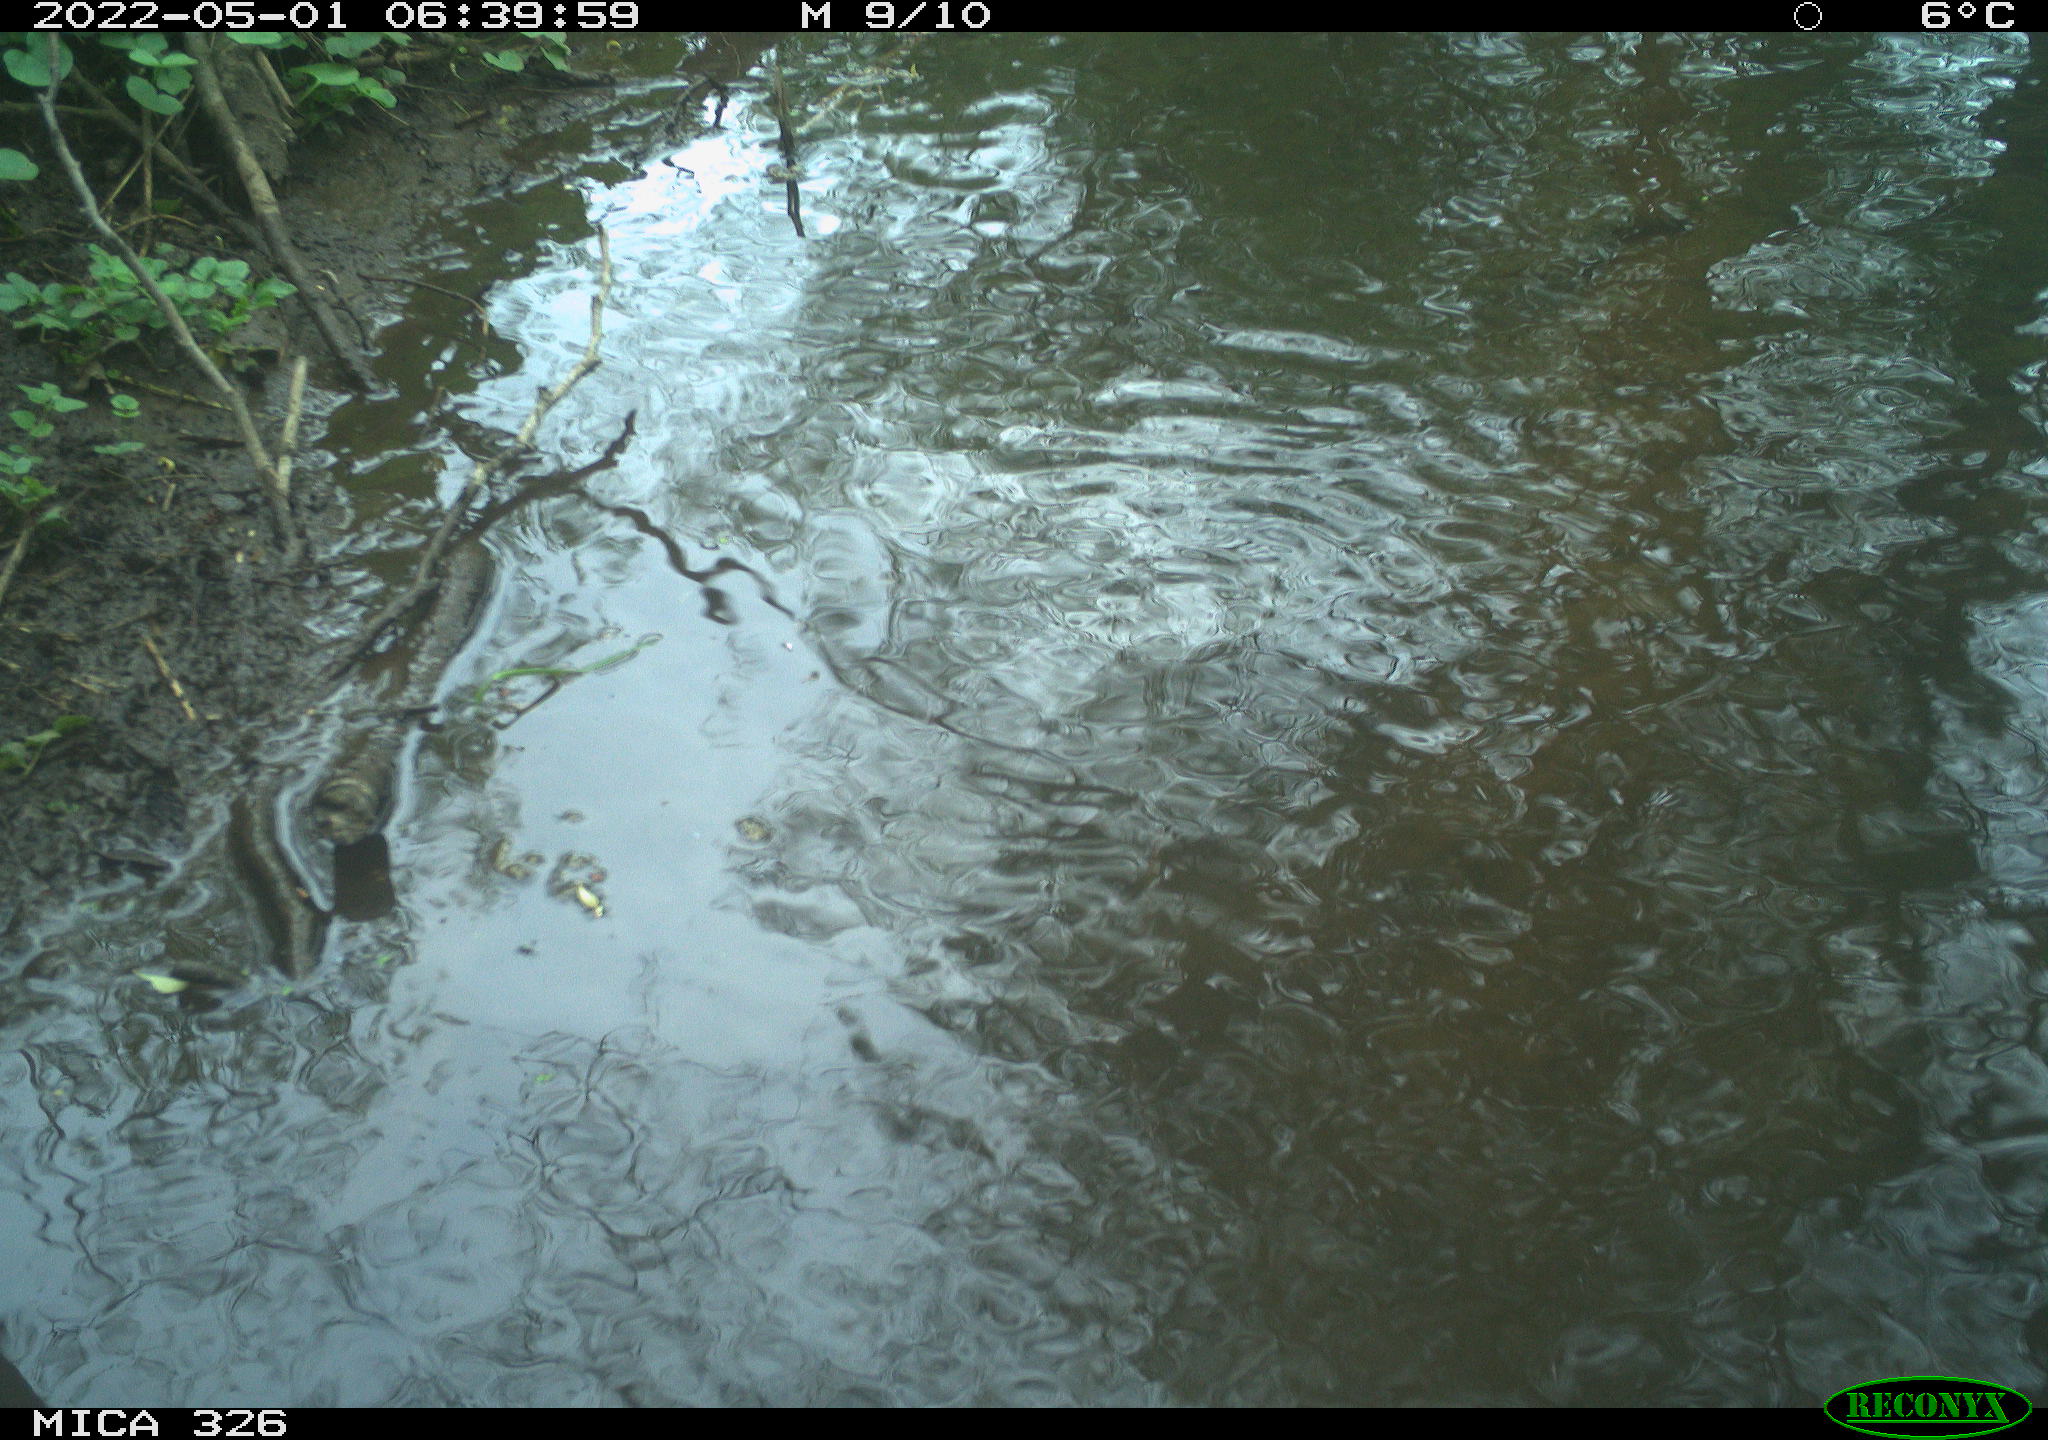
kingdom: Animalia
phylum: Chordata
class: Mammalia
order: Rodentia
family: Cricetidae
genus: Ondatra
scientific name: Ondatra zibethicus
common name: Muskrat
